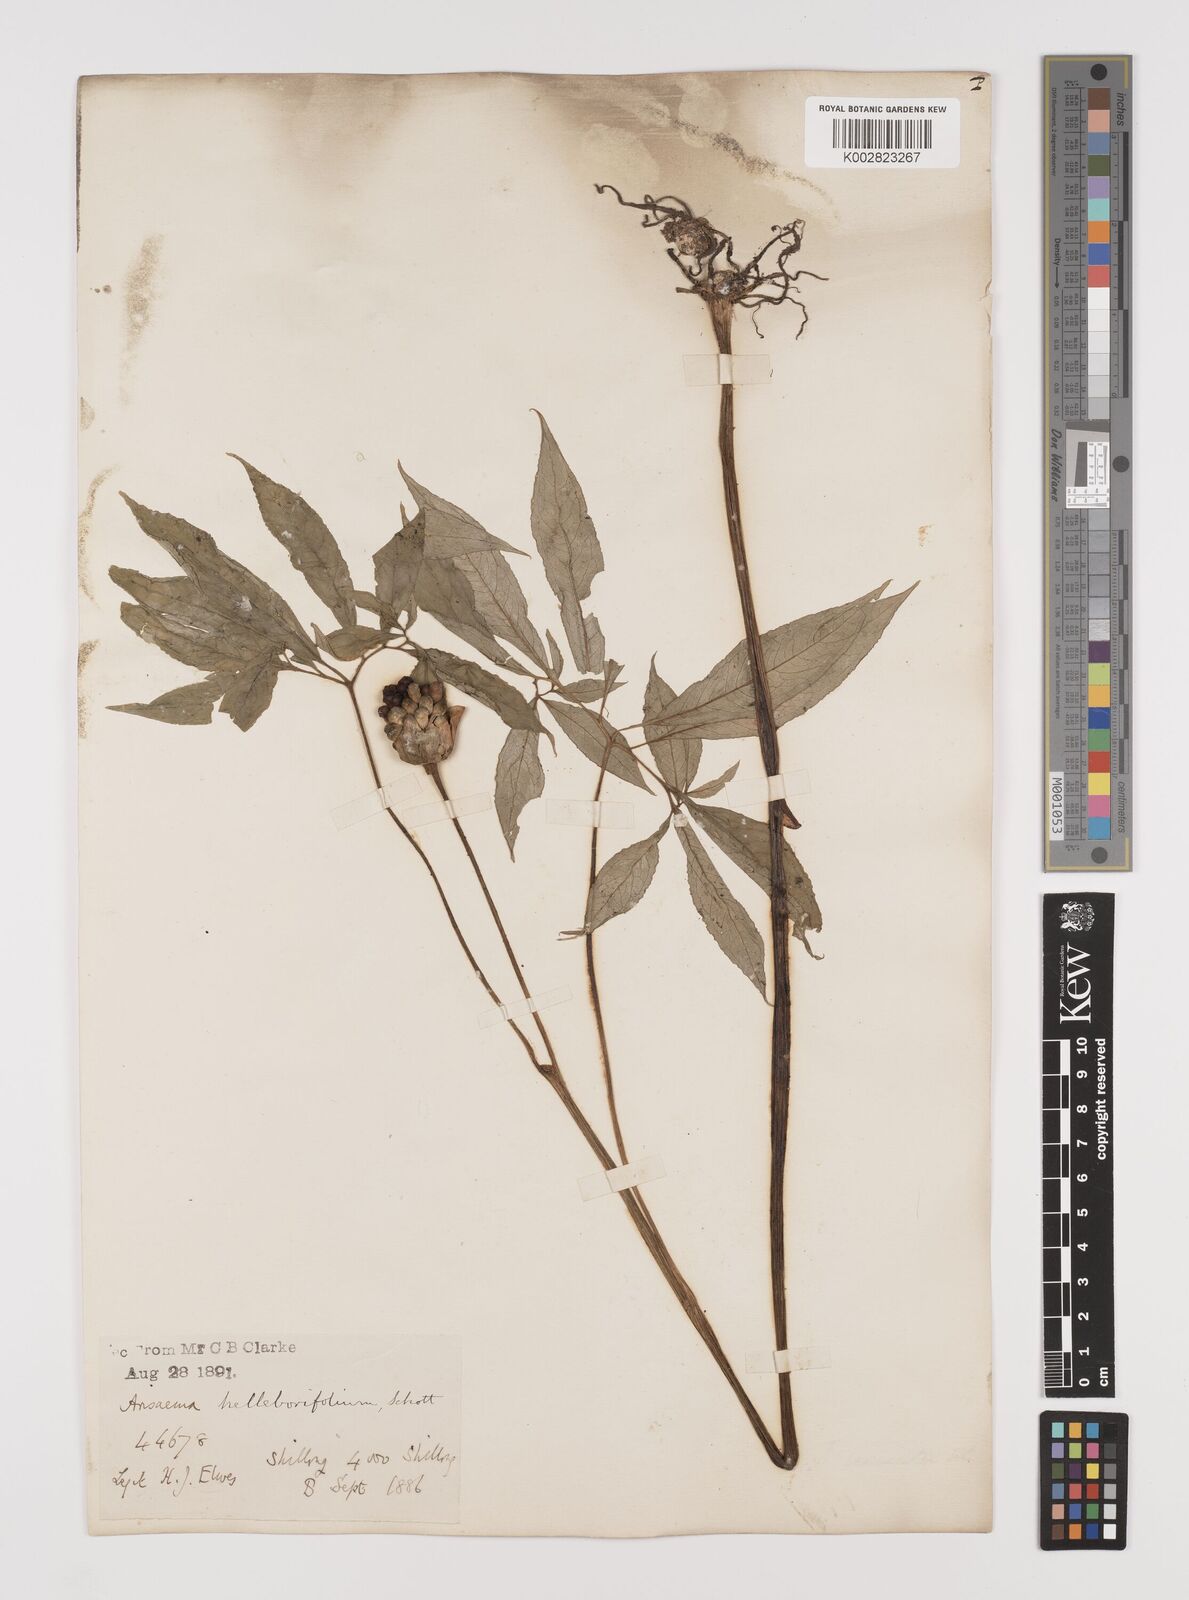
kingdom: Plantae
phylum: Tracheophyta
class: Liliopsida
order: Alismatales
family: Araceae
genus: Arisaema
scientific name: Arisaema tortuosum
